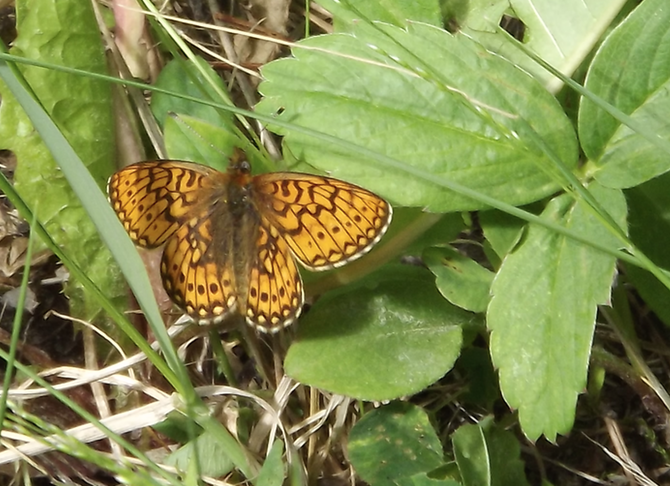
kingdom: Animalia
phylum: Arthropoda
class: Insecta
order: Lepidoptera
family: Nymphalidae
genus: Boloria
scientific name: Boloria
